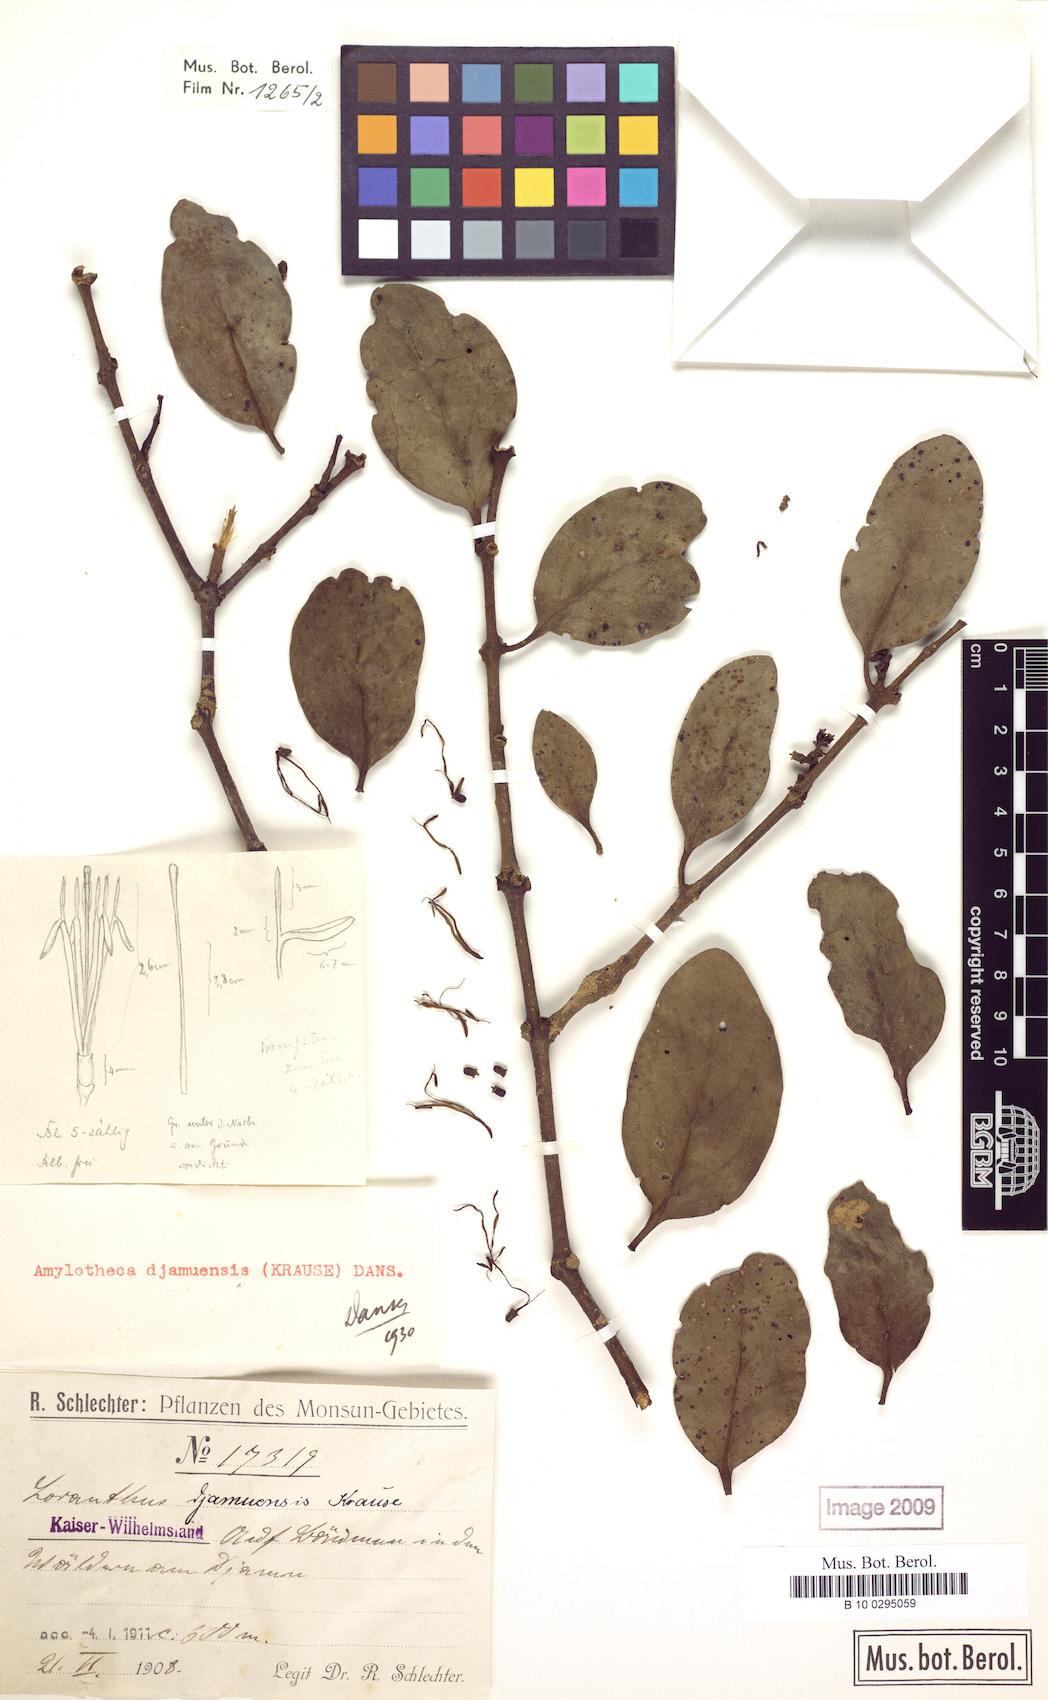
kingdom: Plantae
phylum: Tracheophyta
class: Magnoliopsida
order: Santalales
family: Loranthaceae
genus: Decaisnina
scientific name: Decaisnina djamuensis
